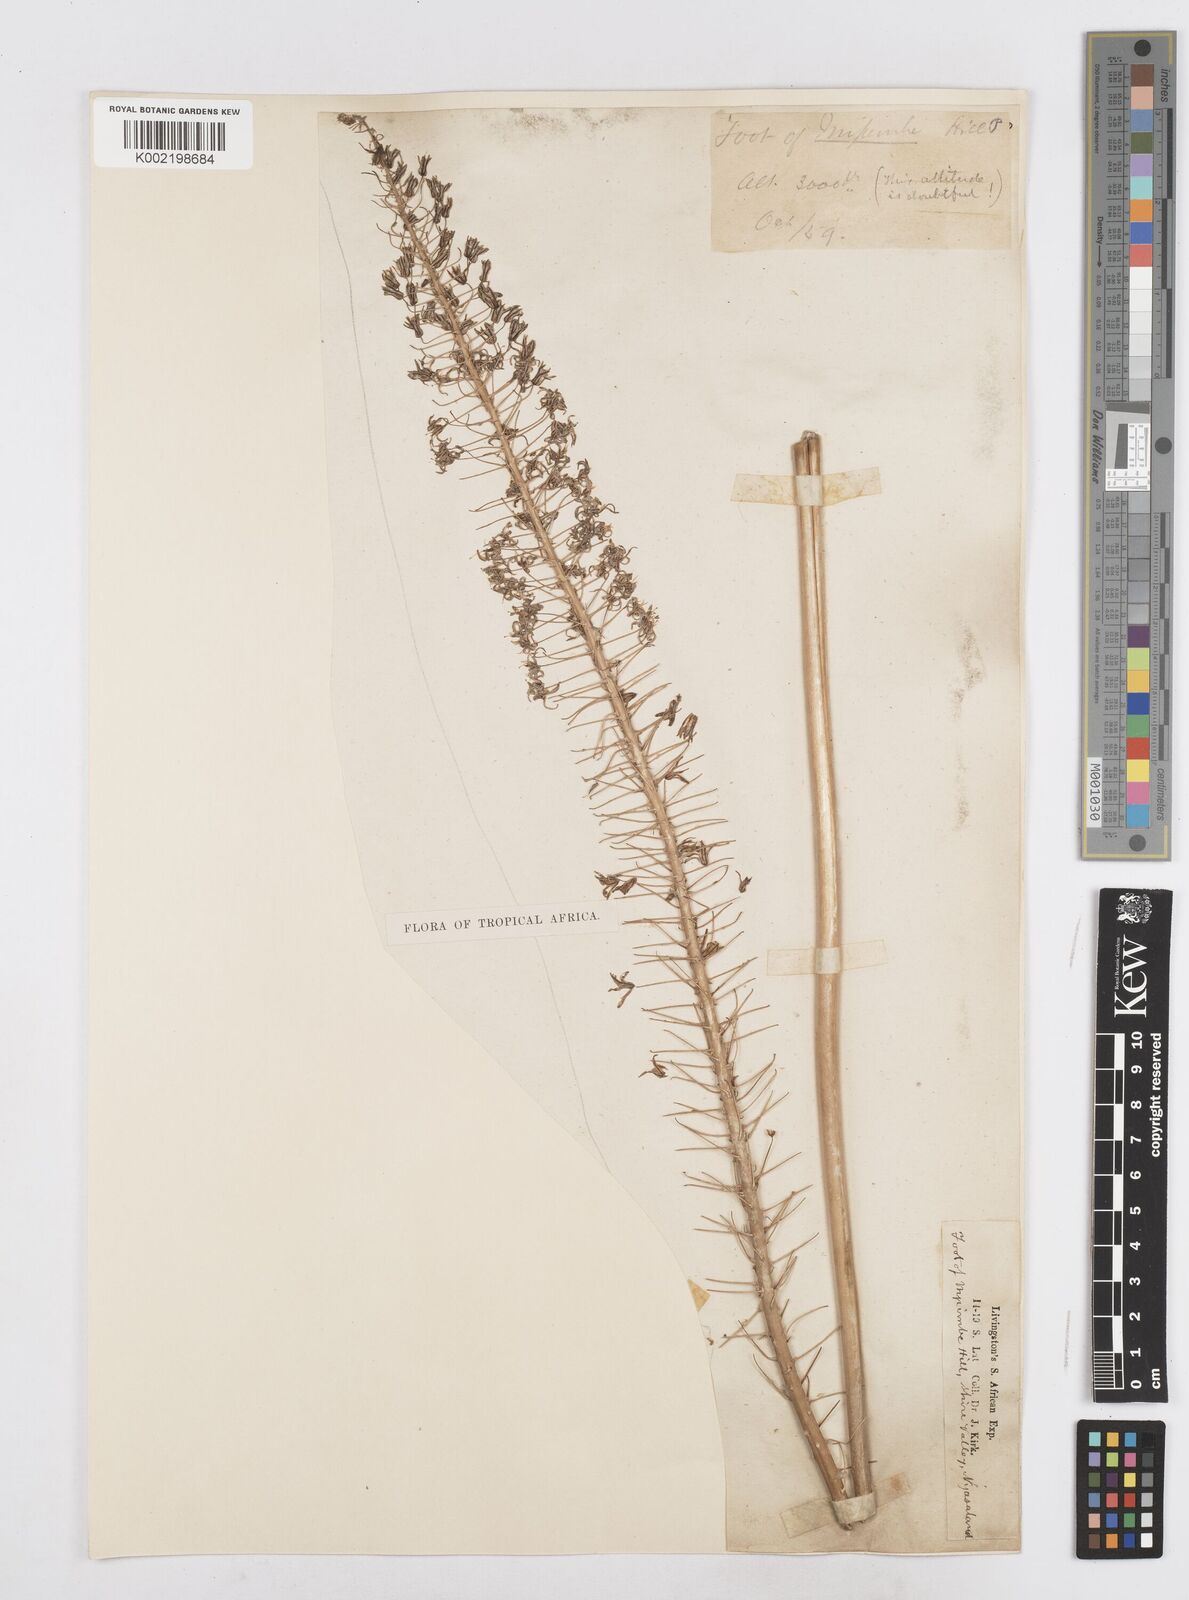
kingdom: Plantae
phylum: Tracheophyta
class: Liliopsida
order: Asparagales
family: Asparagaceae
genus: Drimia
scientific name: Drimia altissima
